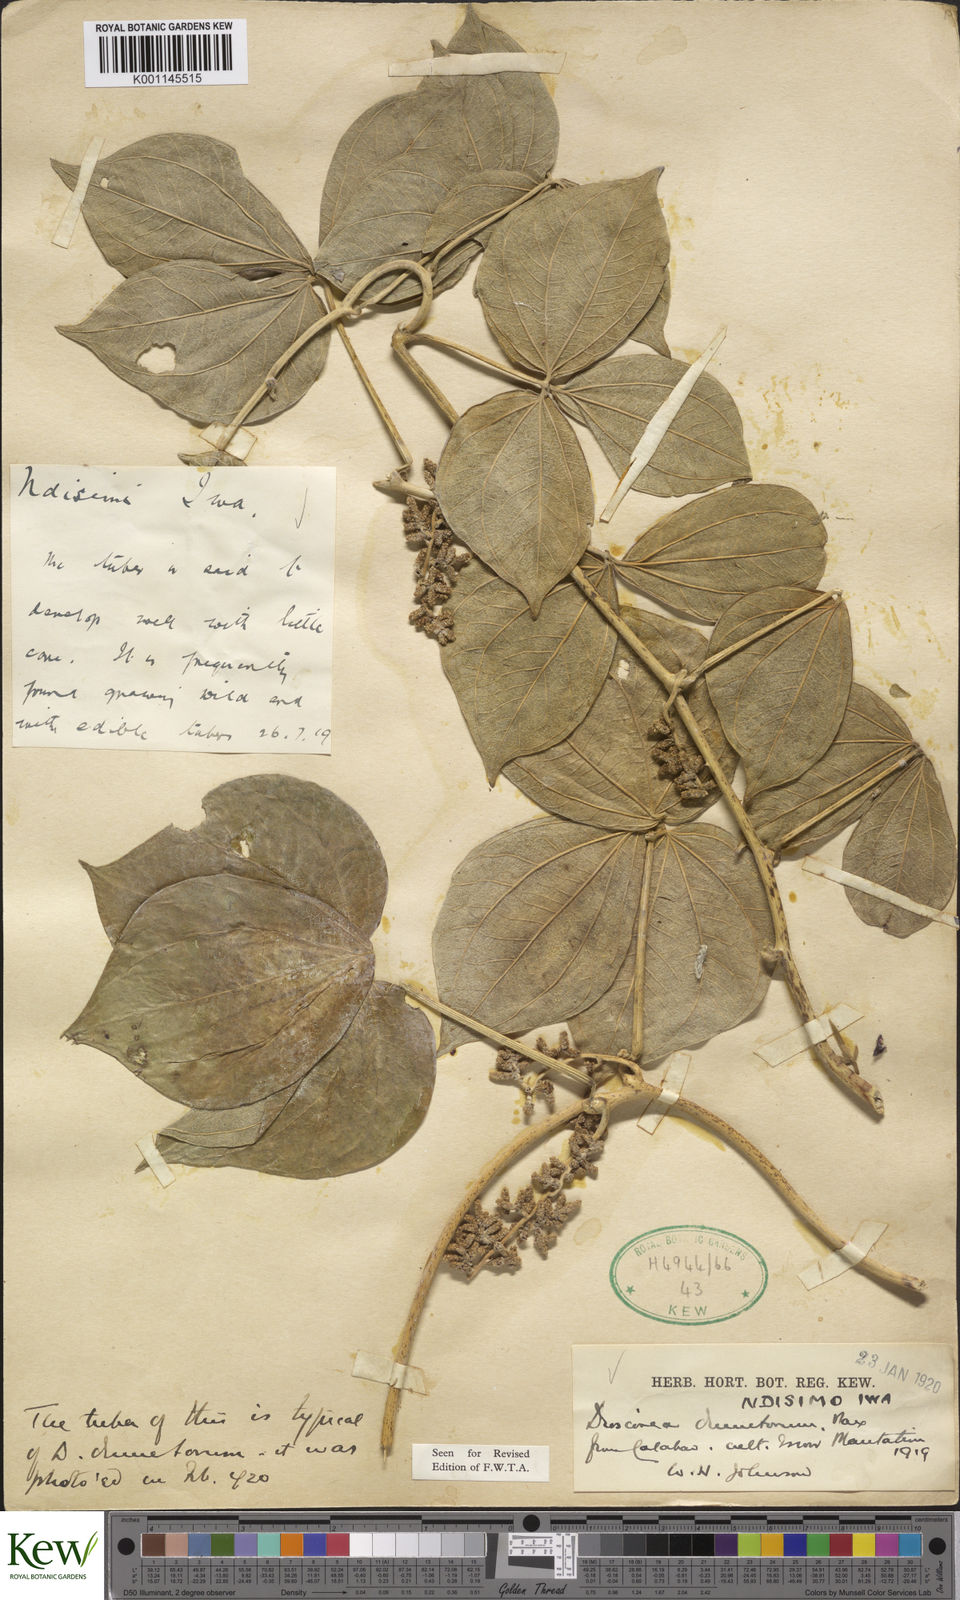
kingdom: Plantae
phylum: Tracheophyta
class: Liliopsida
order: Dioscoreales
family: Dioscoreaceae
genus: Dioscorea
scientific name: Dioscorea dumetorum
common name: African bitter yam
